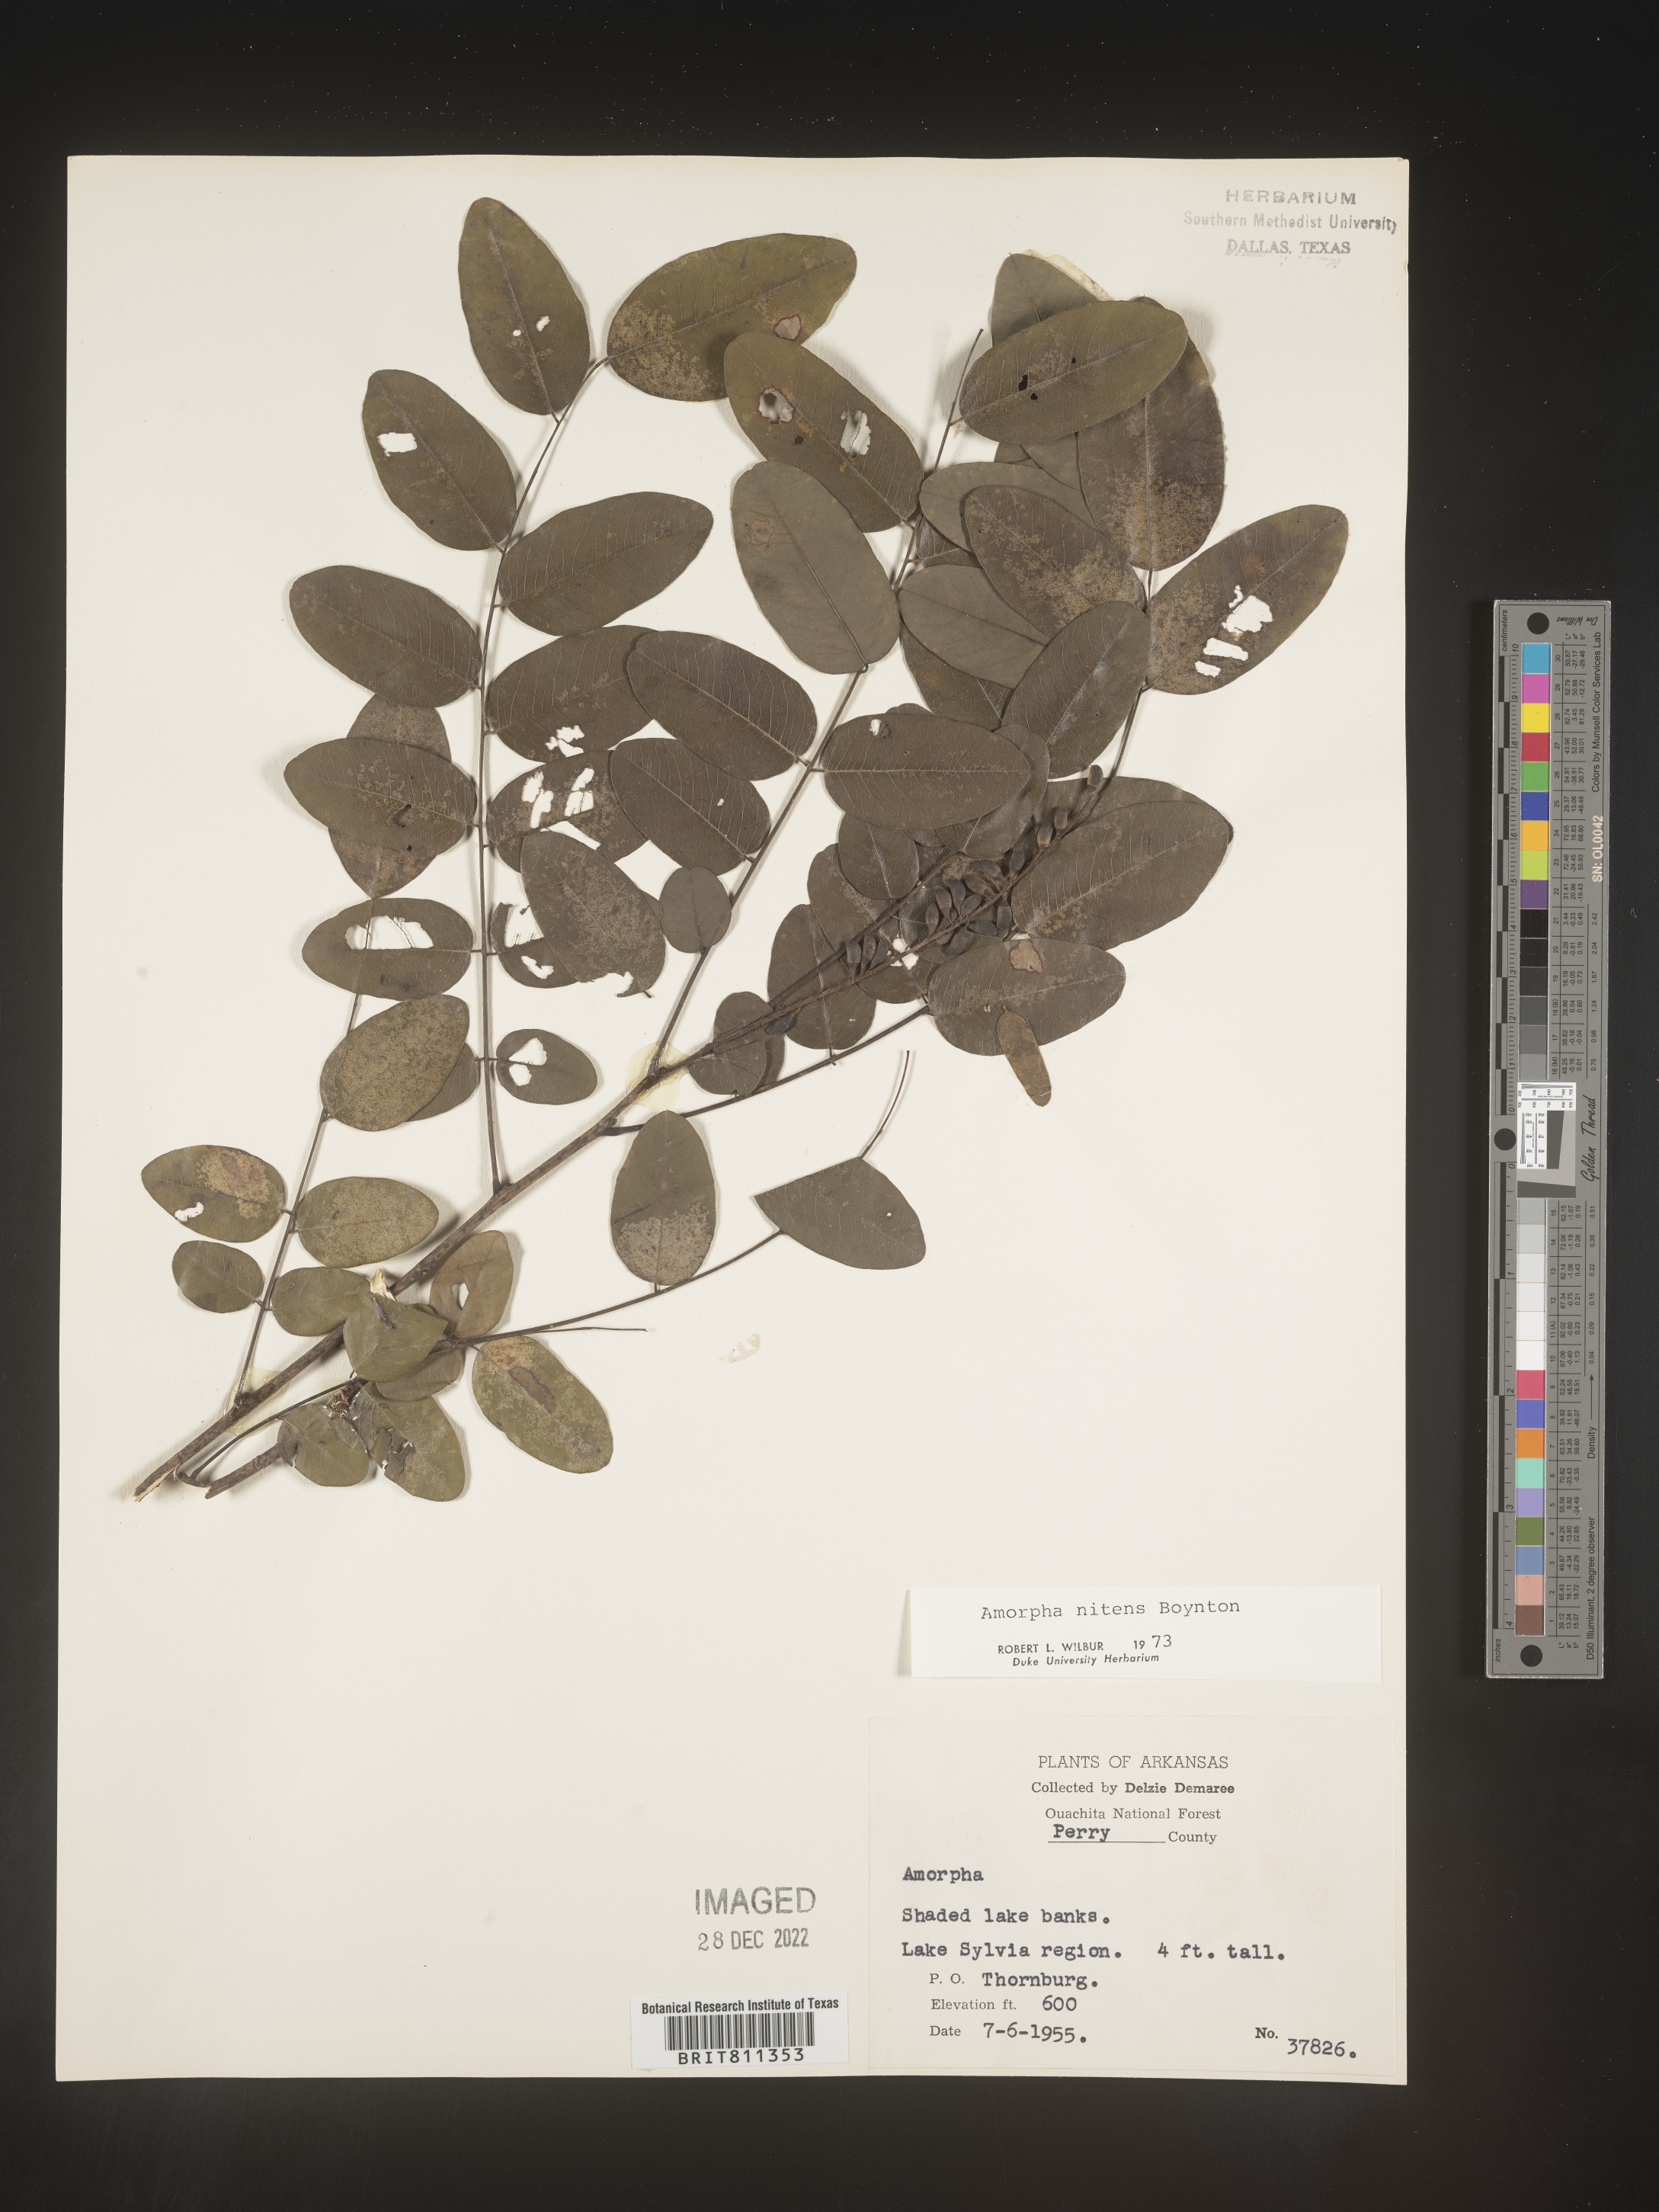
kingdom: Plantae
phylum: Tracheophyta
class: Magnoliopsida
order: Fabales
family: Fabaceae
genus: Amorpha
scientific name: Amorpha nitens
